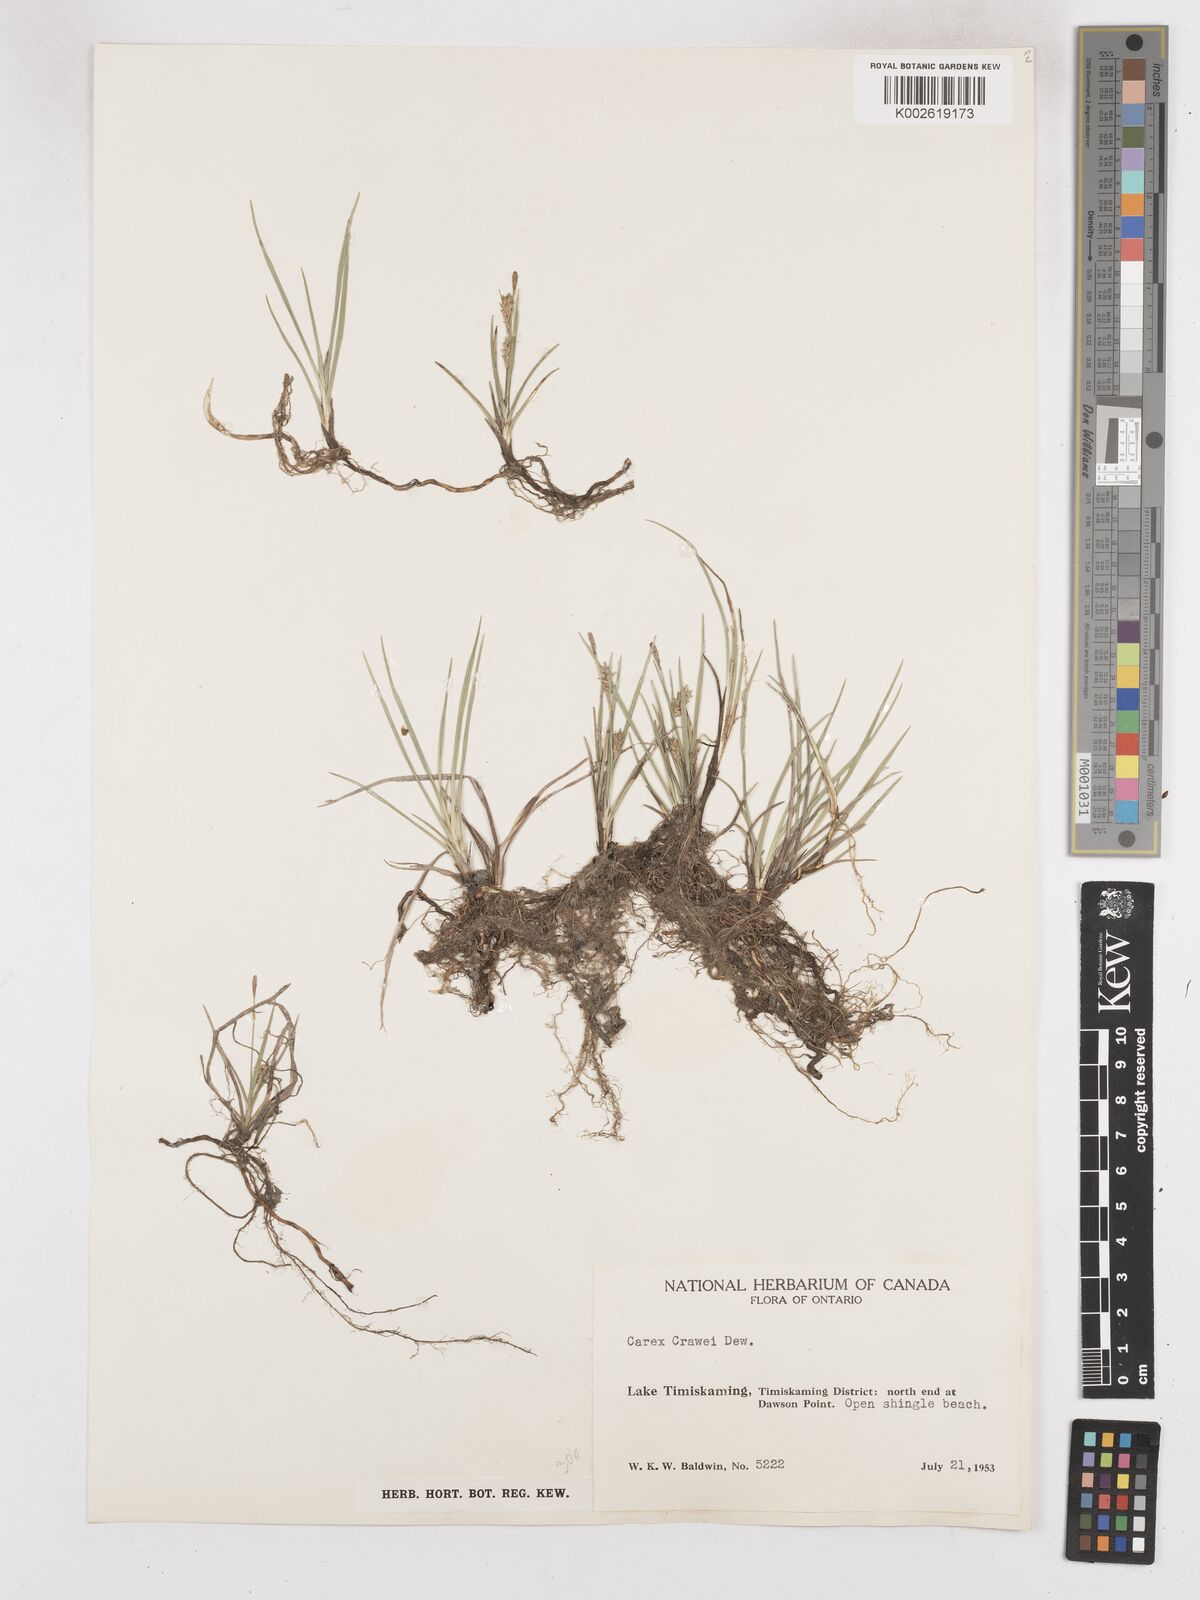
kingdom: Plantae
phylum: Tracheophyta
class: Liliopsida
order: Poales
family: Cyperaceae
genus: Carex
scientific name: Carex crawei
